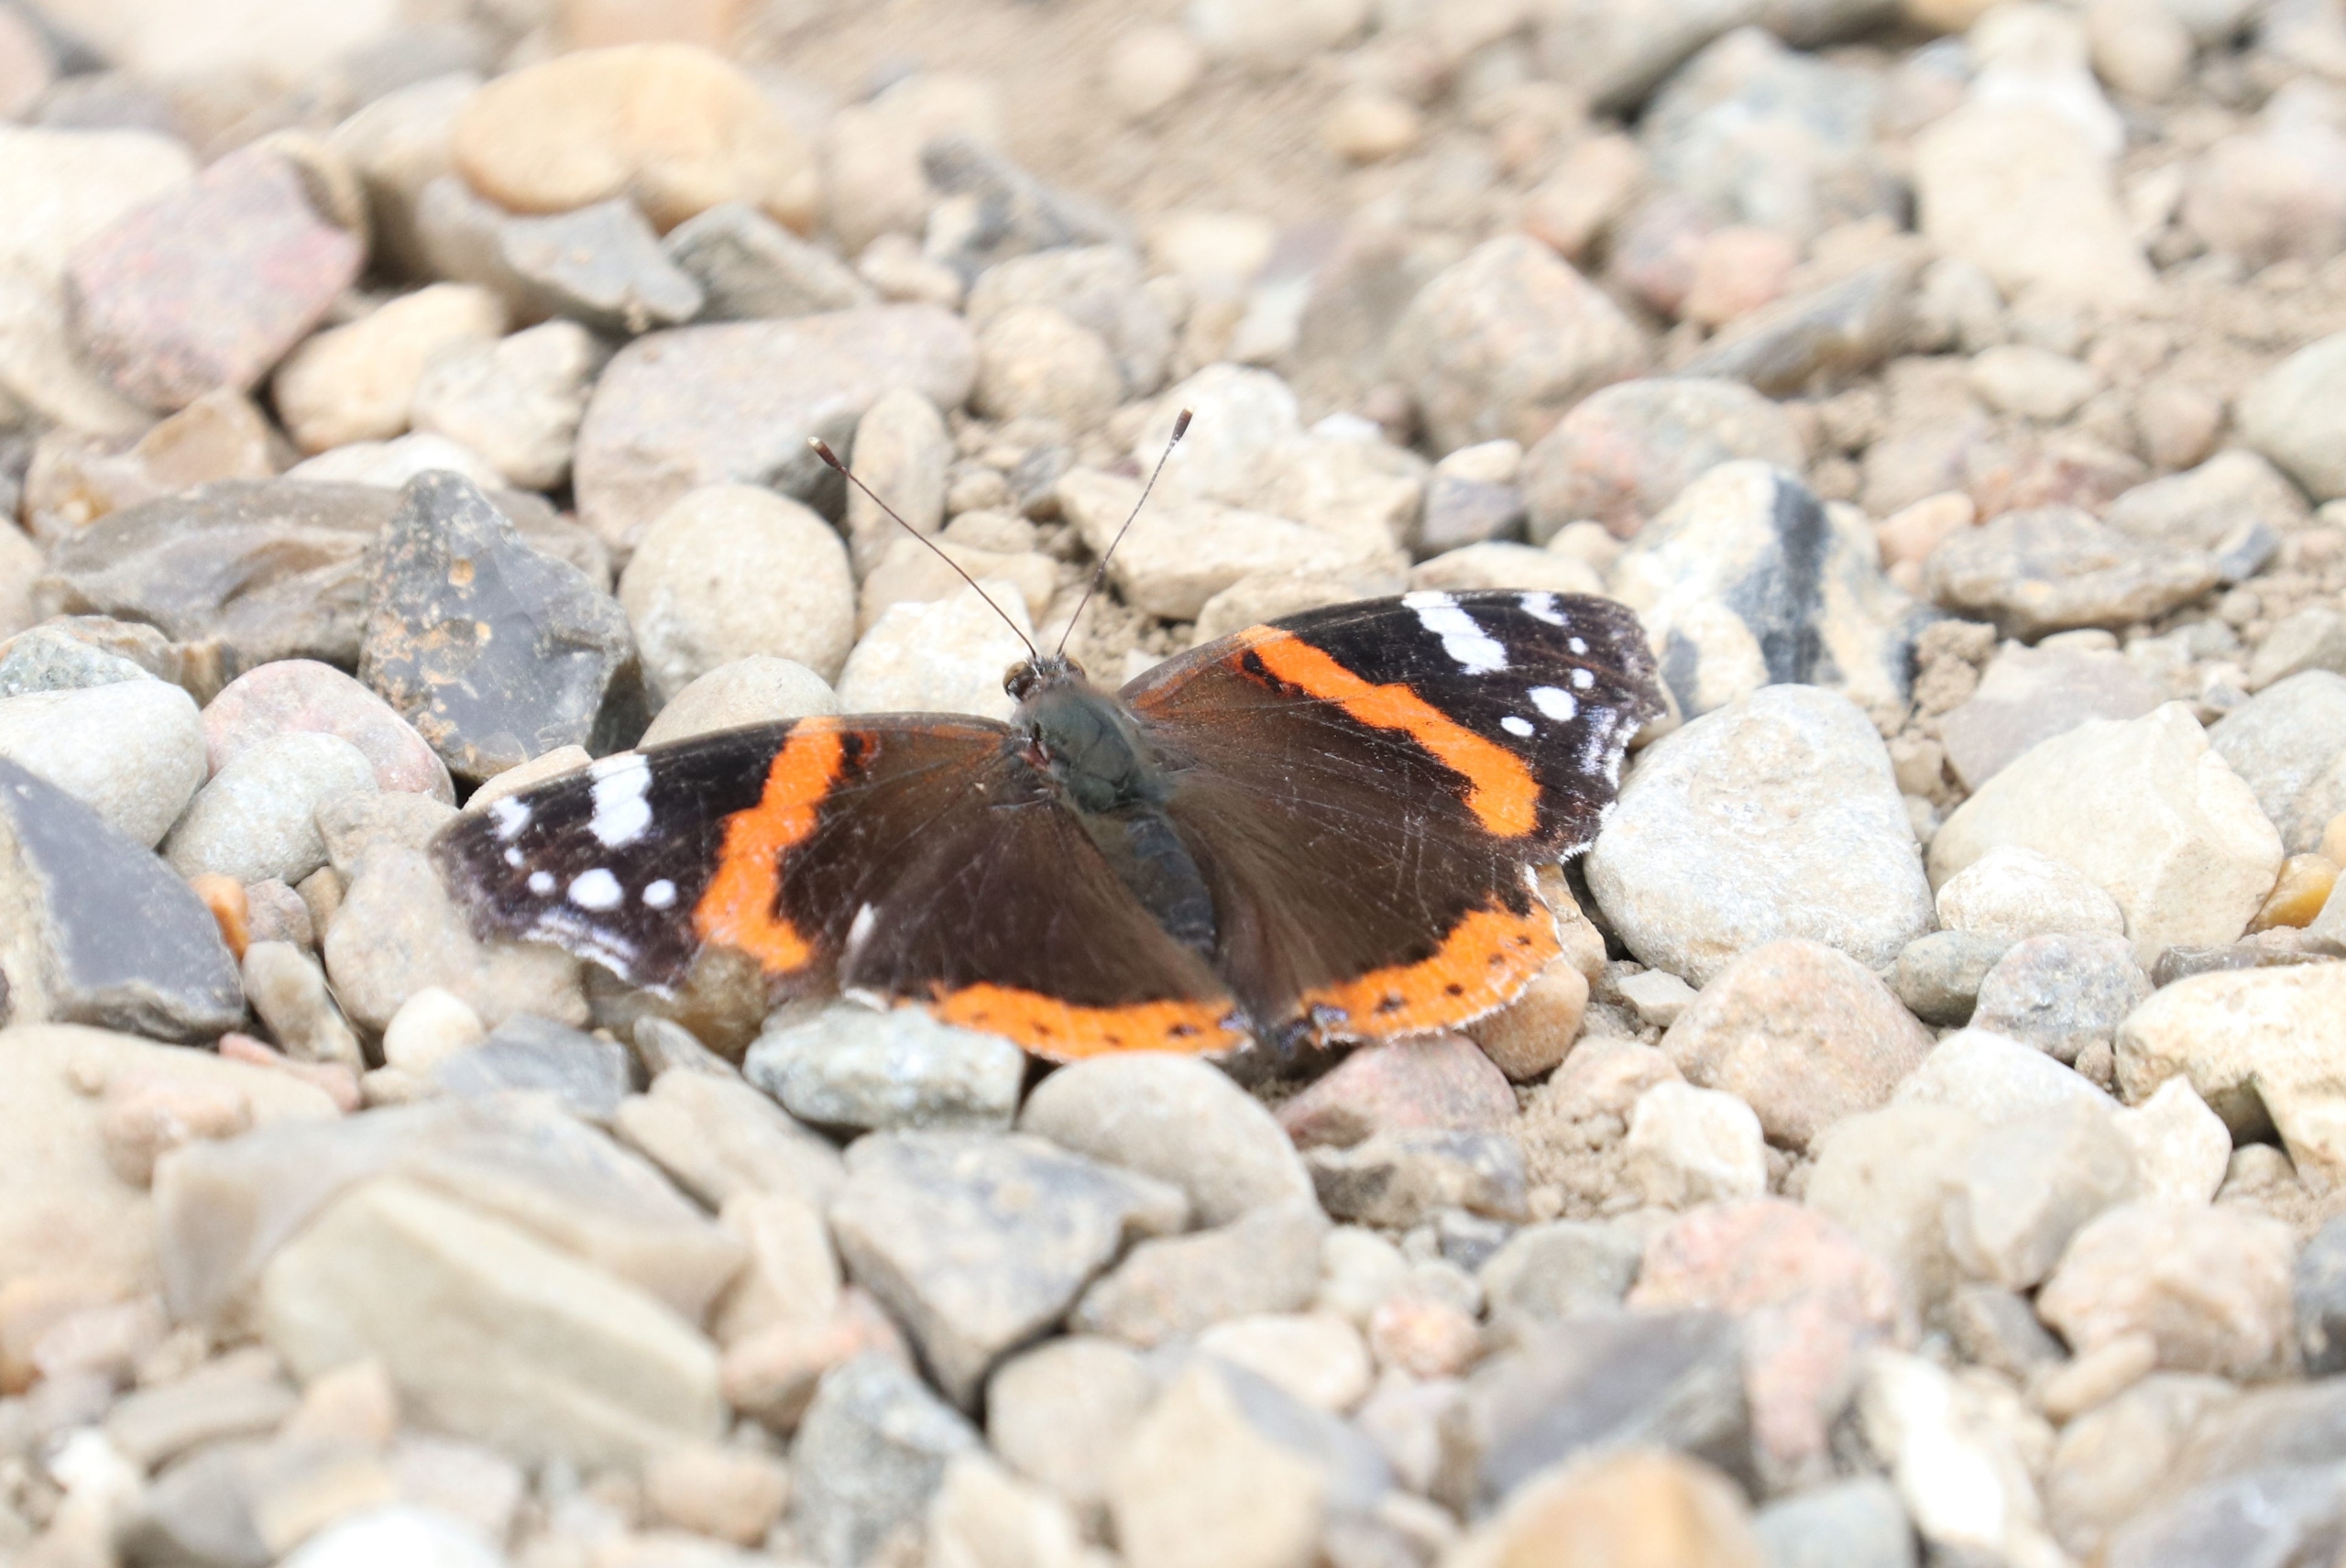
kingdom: Animalia
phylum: Arthropoda
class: Insecta
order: Lepidoptera
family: Nymphalidae
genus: Vanessa
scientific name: Vanessa atalanta
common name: Admiral
